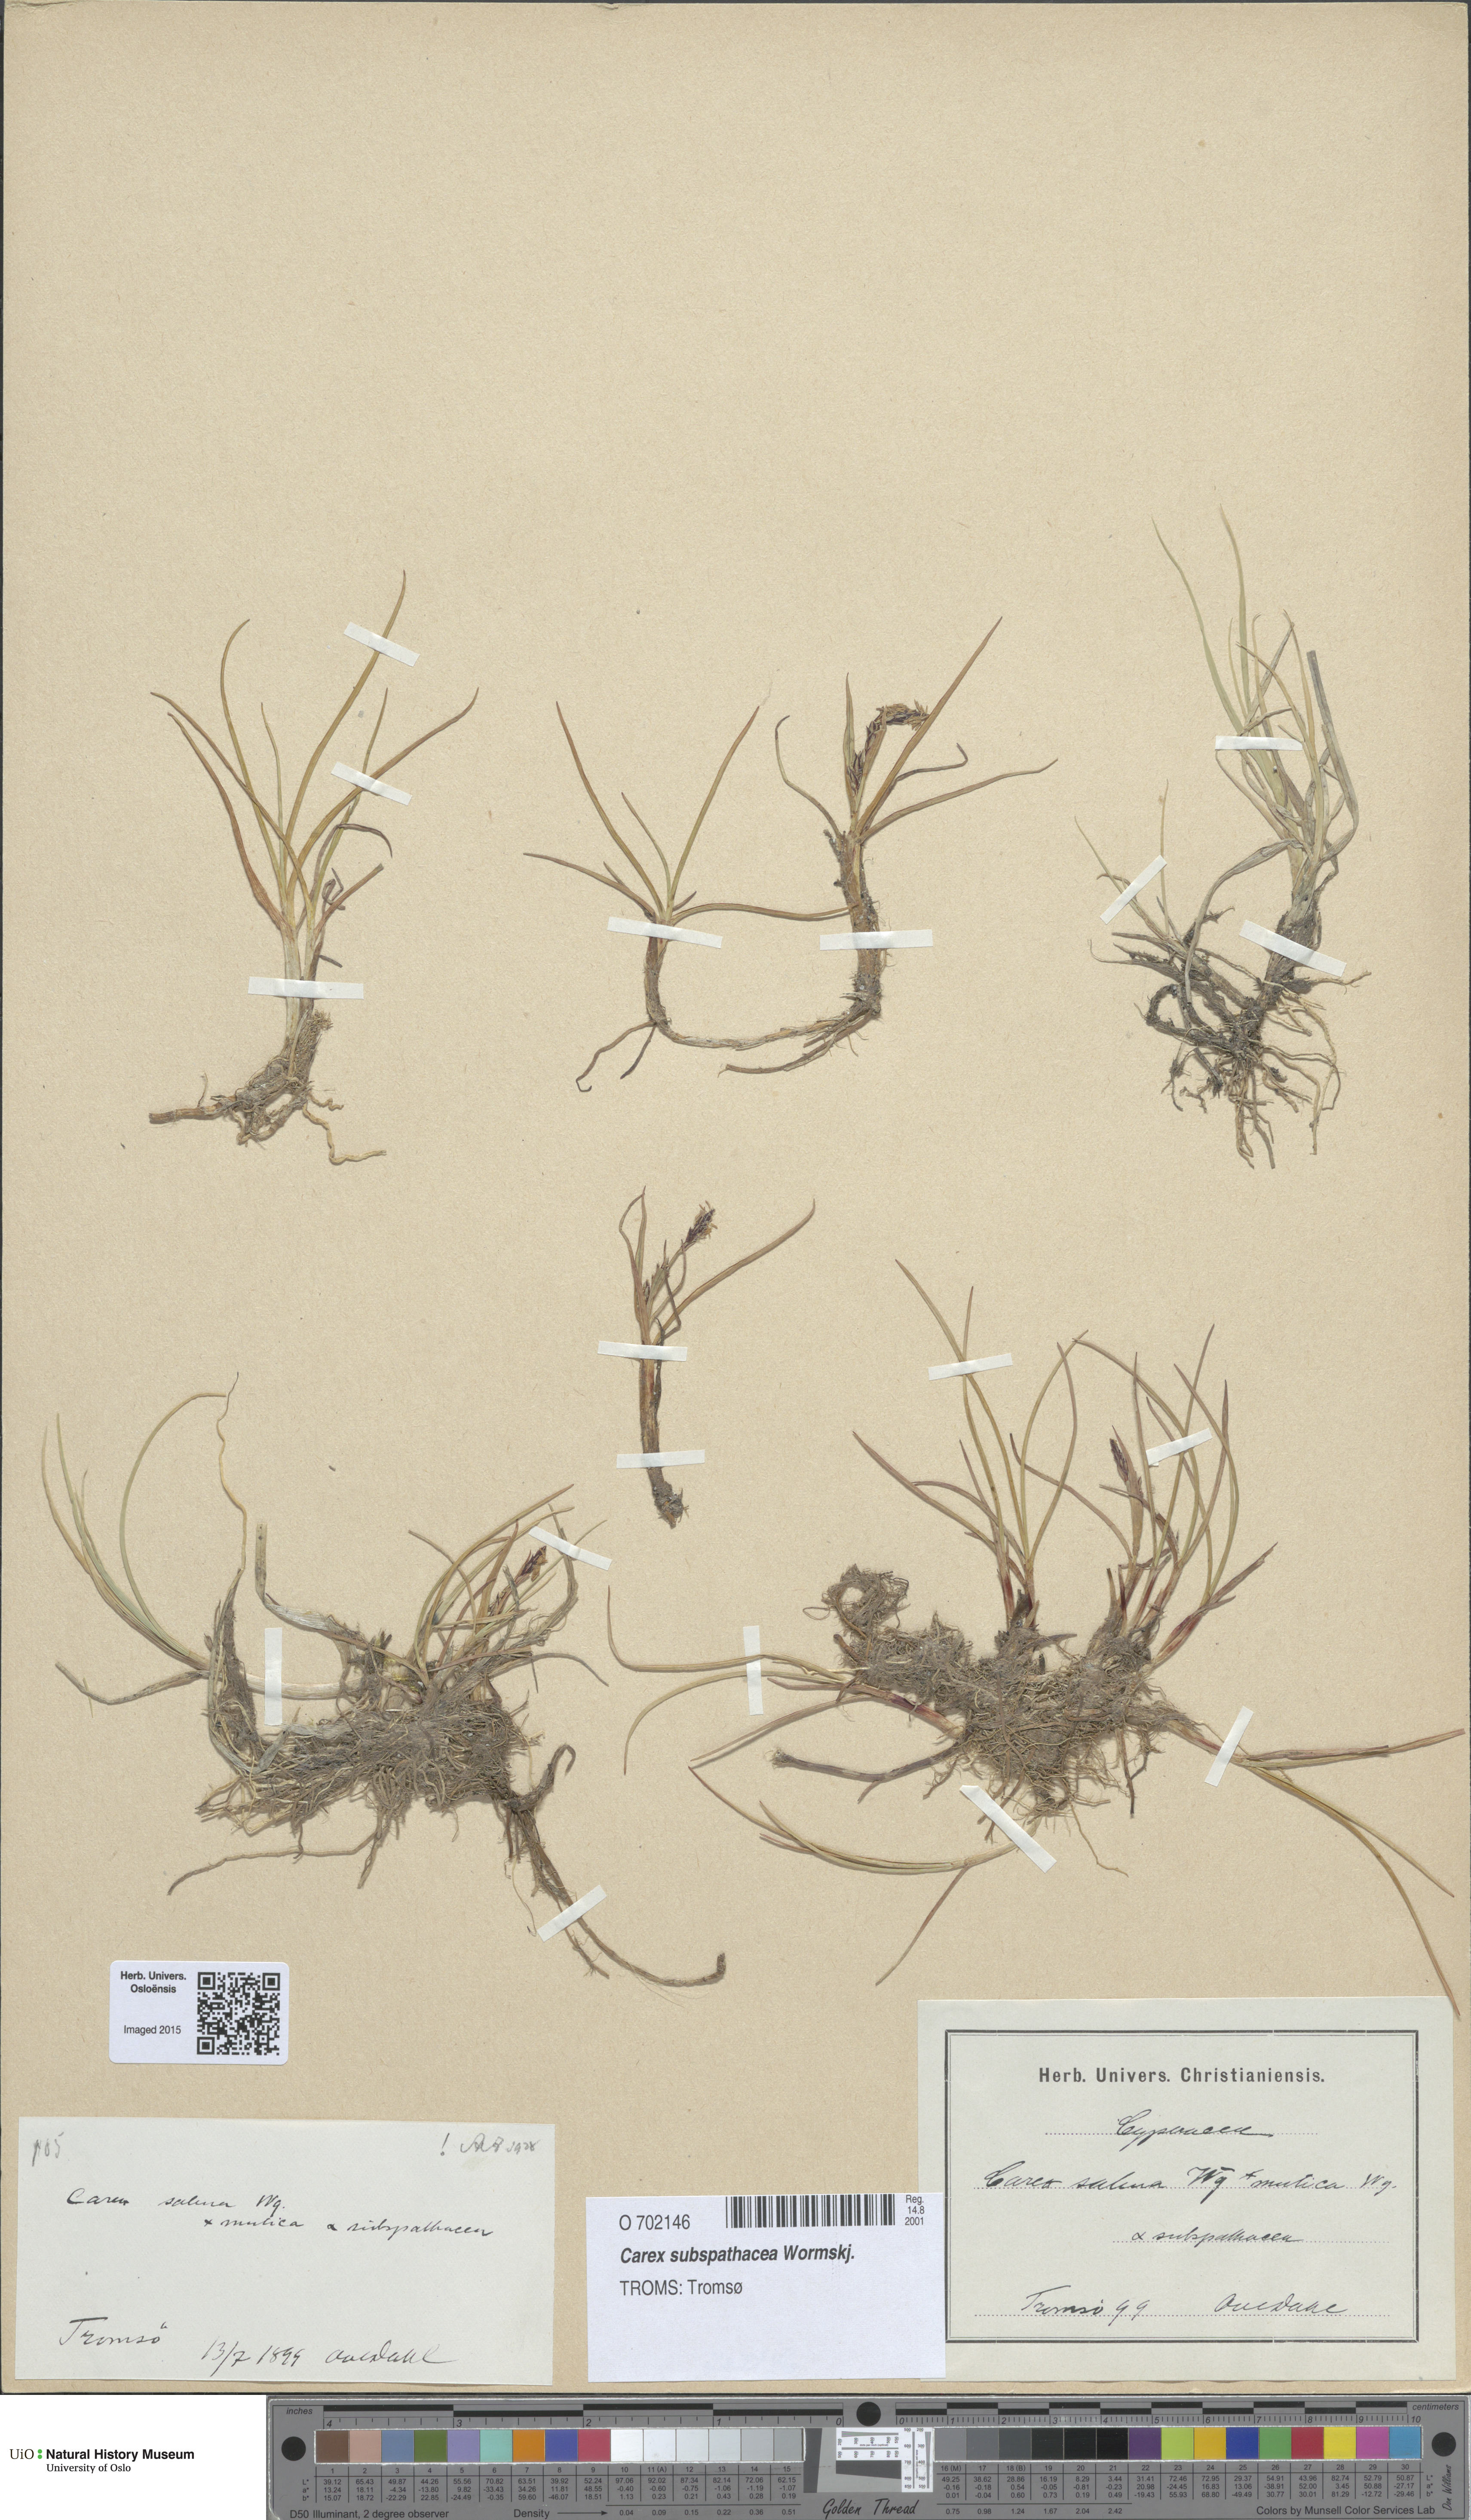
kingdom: Plantae
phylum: Tracheophyta
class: Liliopsida
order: Poales
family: Cyperaceae
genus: Carex
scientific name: Carex subspathacea
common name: Hoppner's sedge
